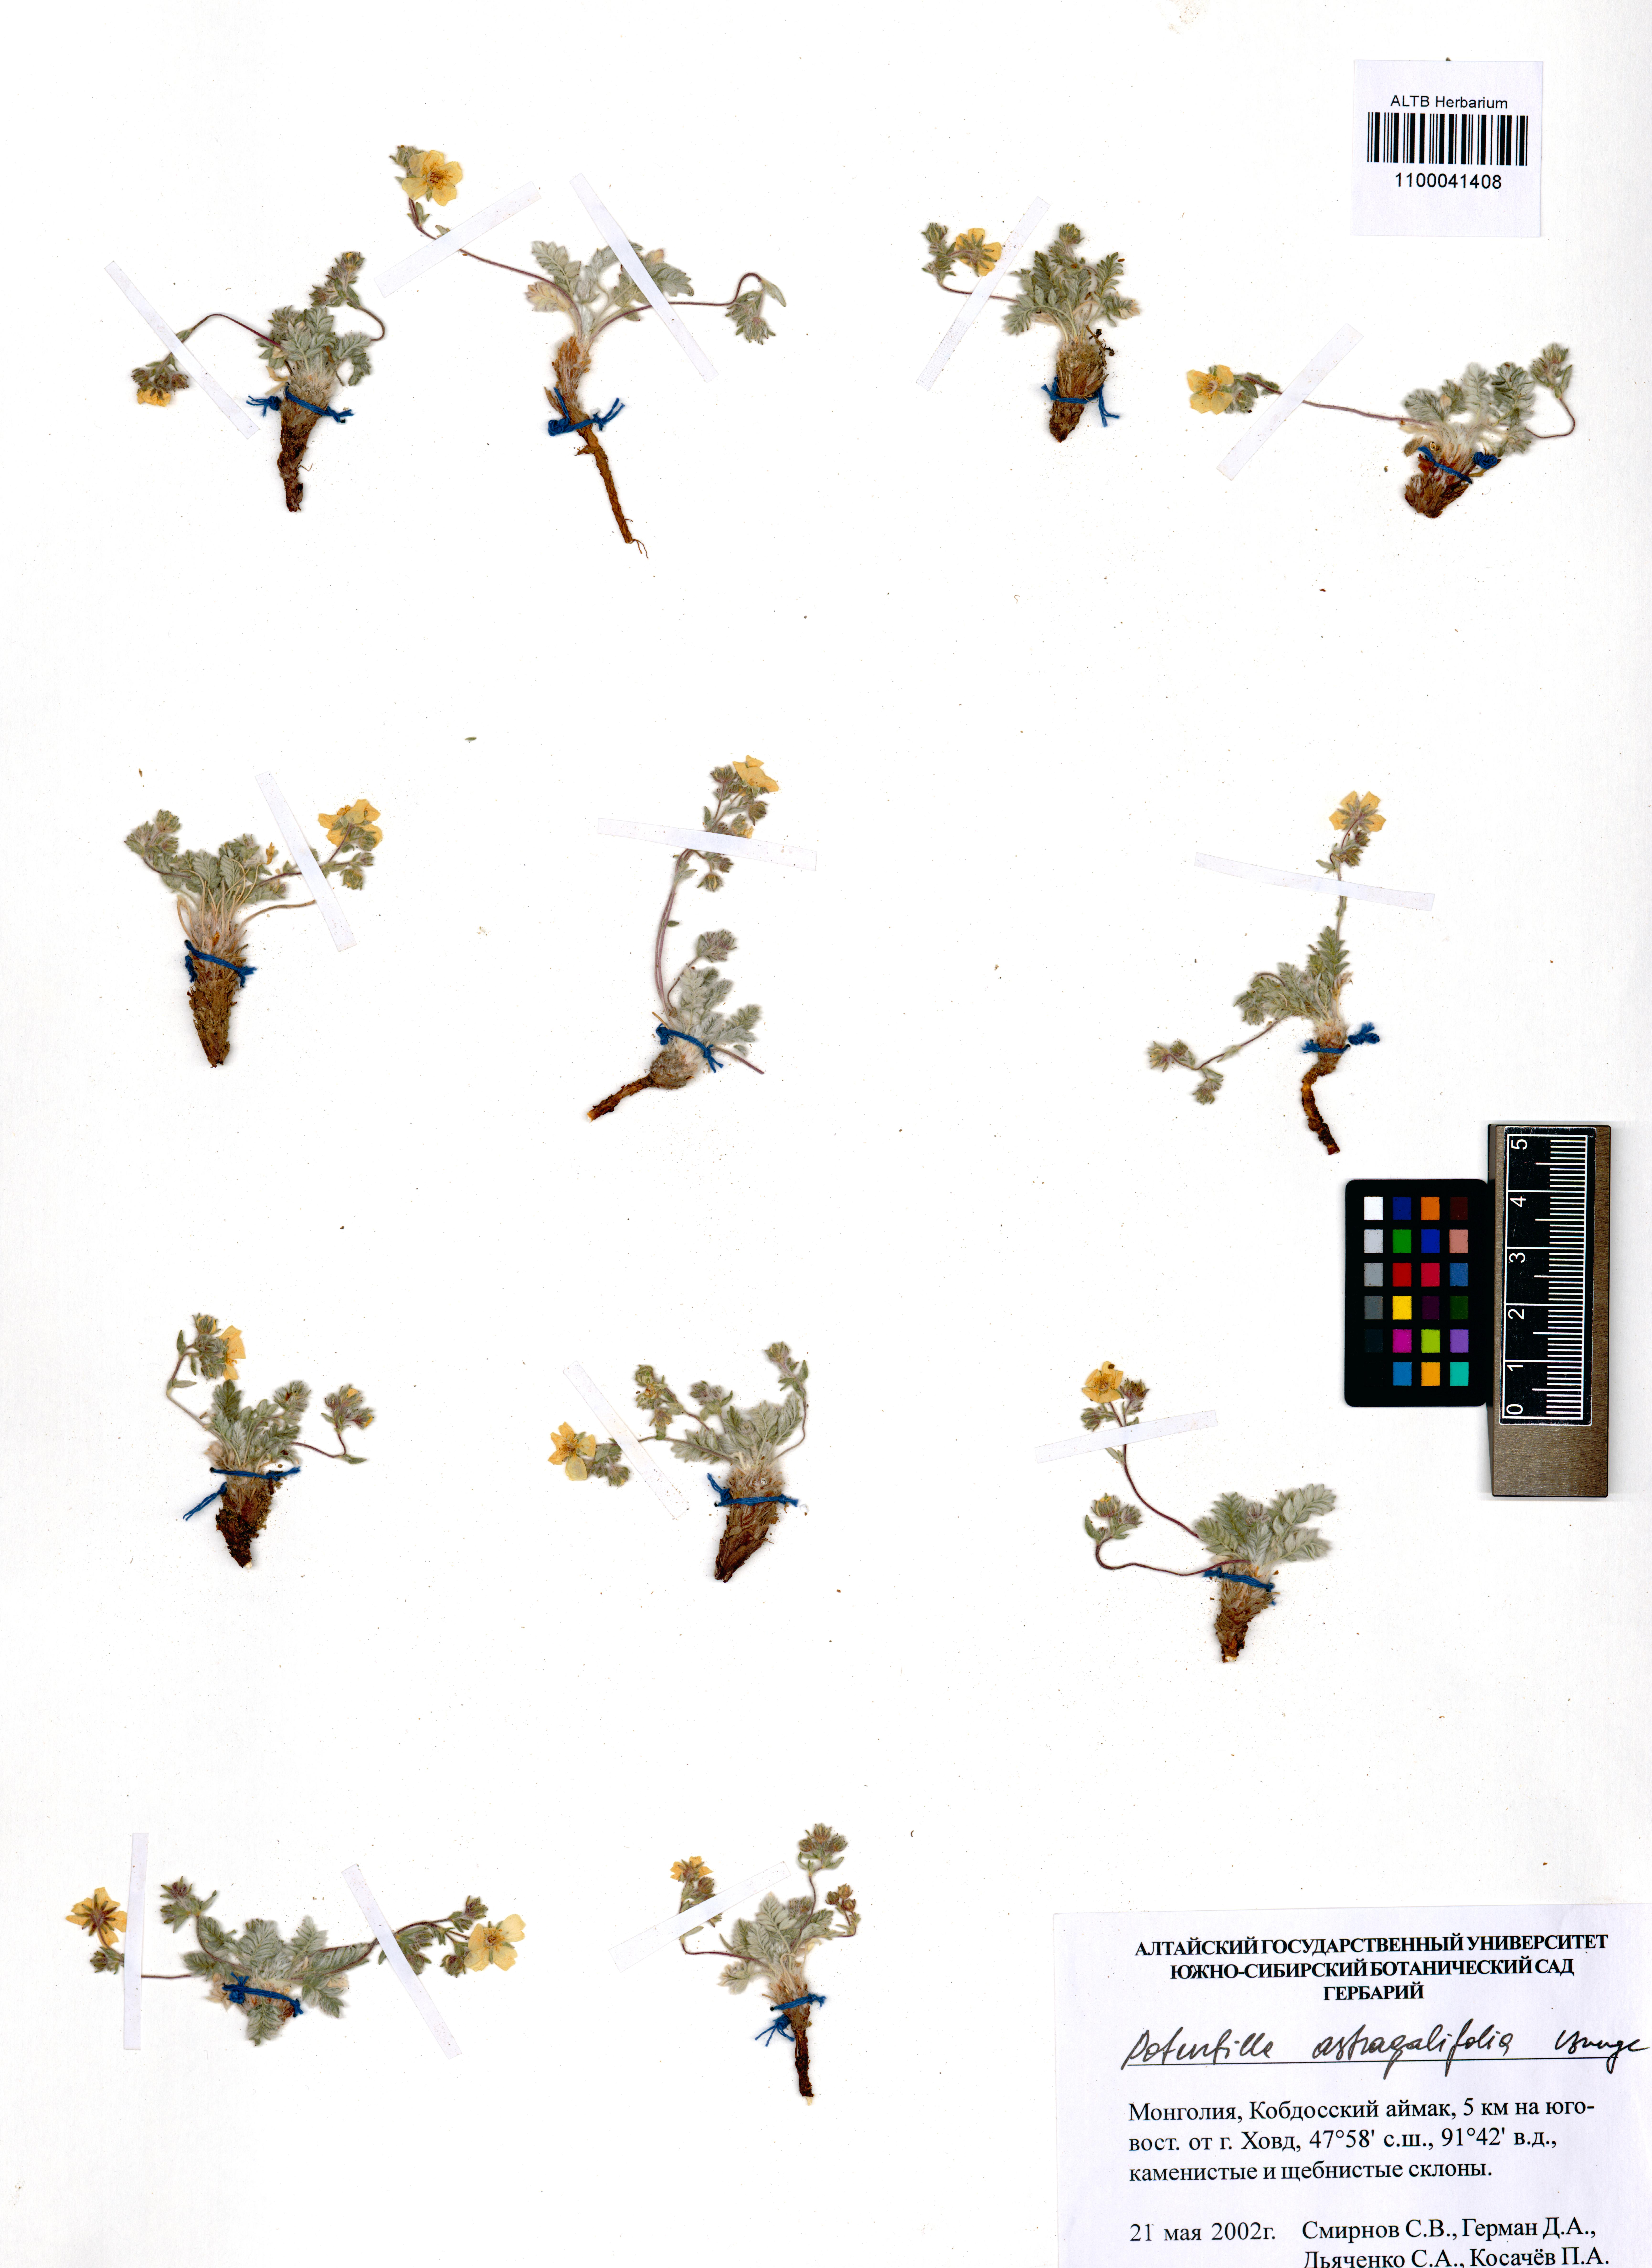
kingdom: Plantae
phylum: Tracheophyta
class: Magnoliopsida
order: Rosales
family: Rosaceae
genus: Potentilla
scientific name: Potentilla astragalifolia
